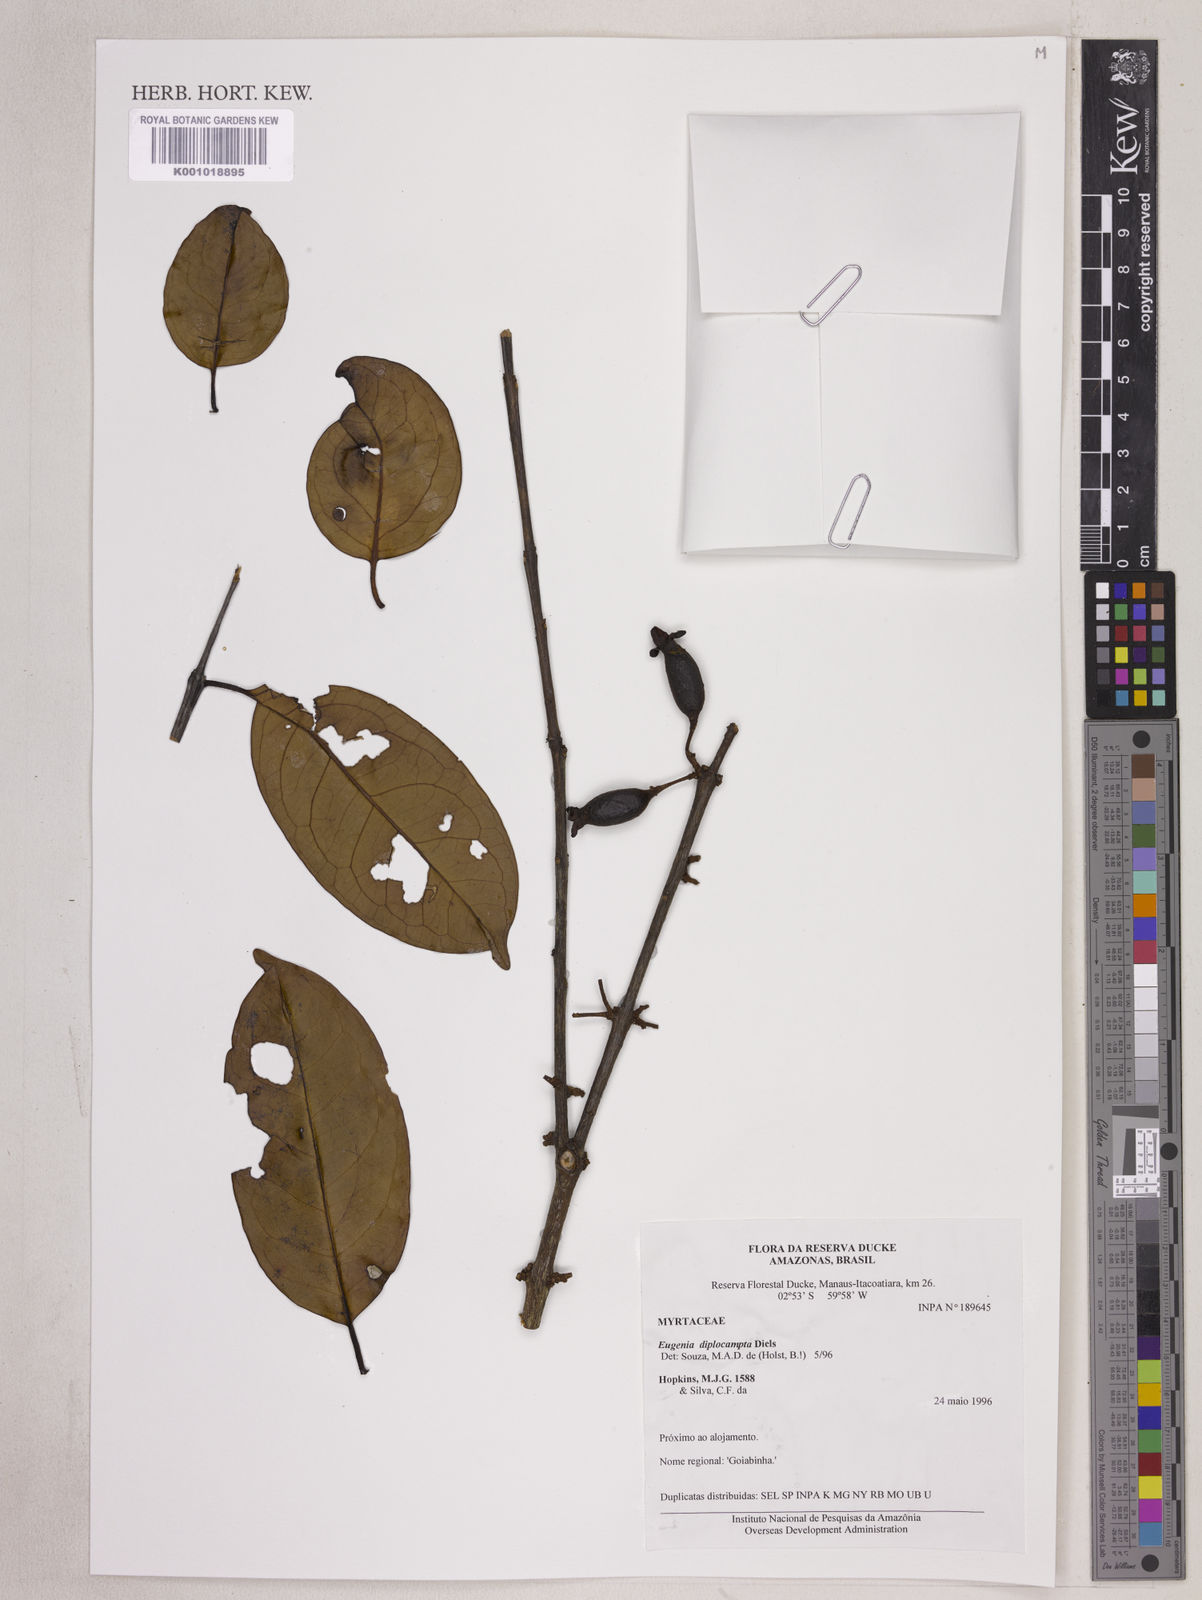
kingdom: Plantae
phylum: Tracheophyta
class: Magnoliopsida
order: Myrtales
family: Myrtaceae
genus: Eugenia
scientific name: Eugenia joseramosii
